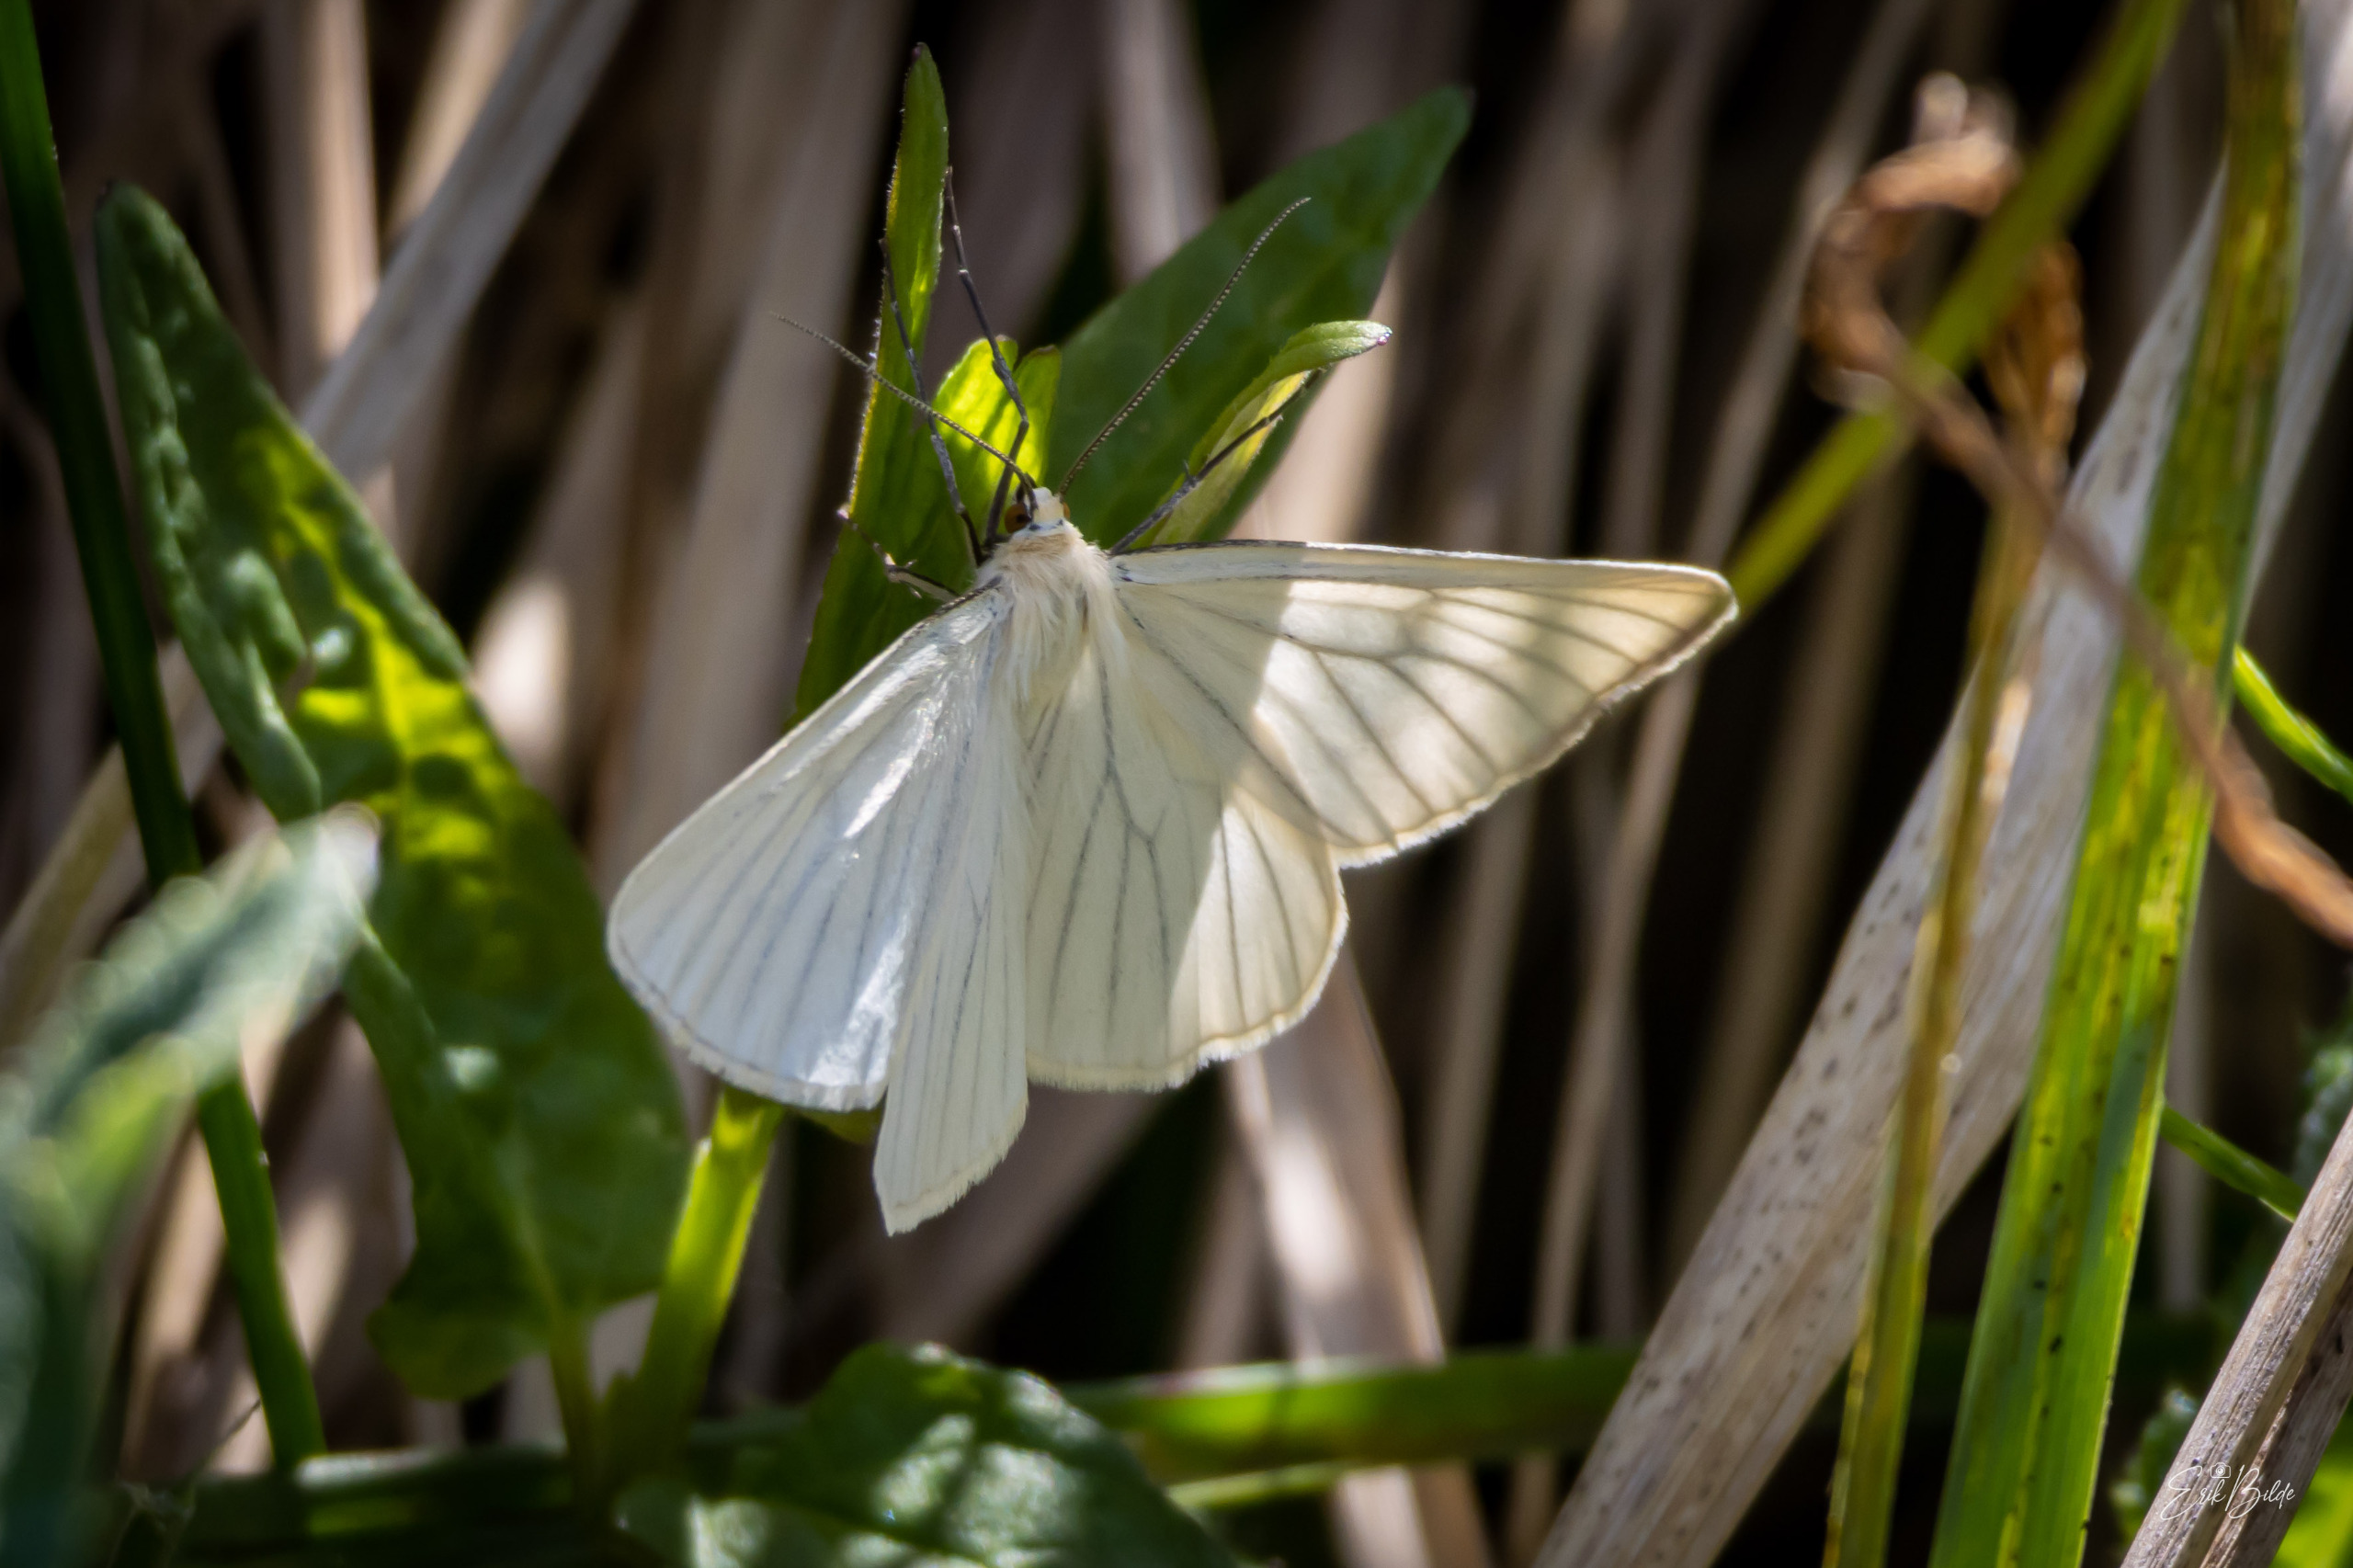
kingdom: Animalia
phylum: Arthropoda
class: Insecta
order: Lepidoptera
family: Geometridae
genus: Siona
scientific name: Siona lineata
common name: Hvidvingemåler
